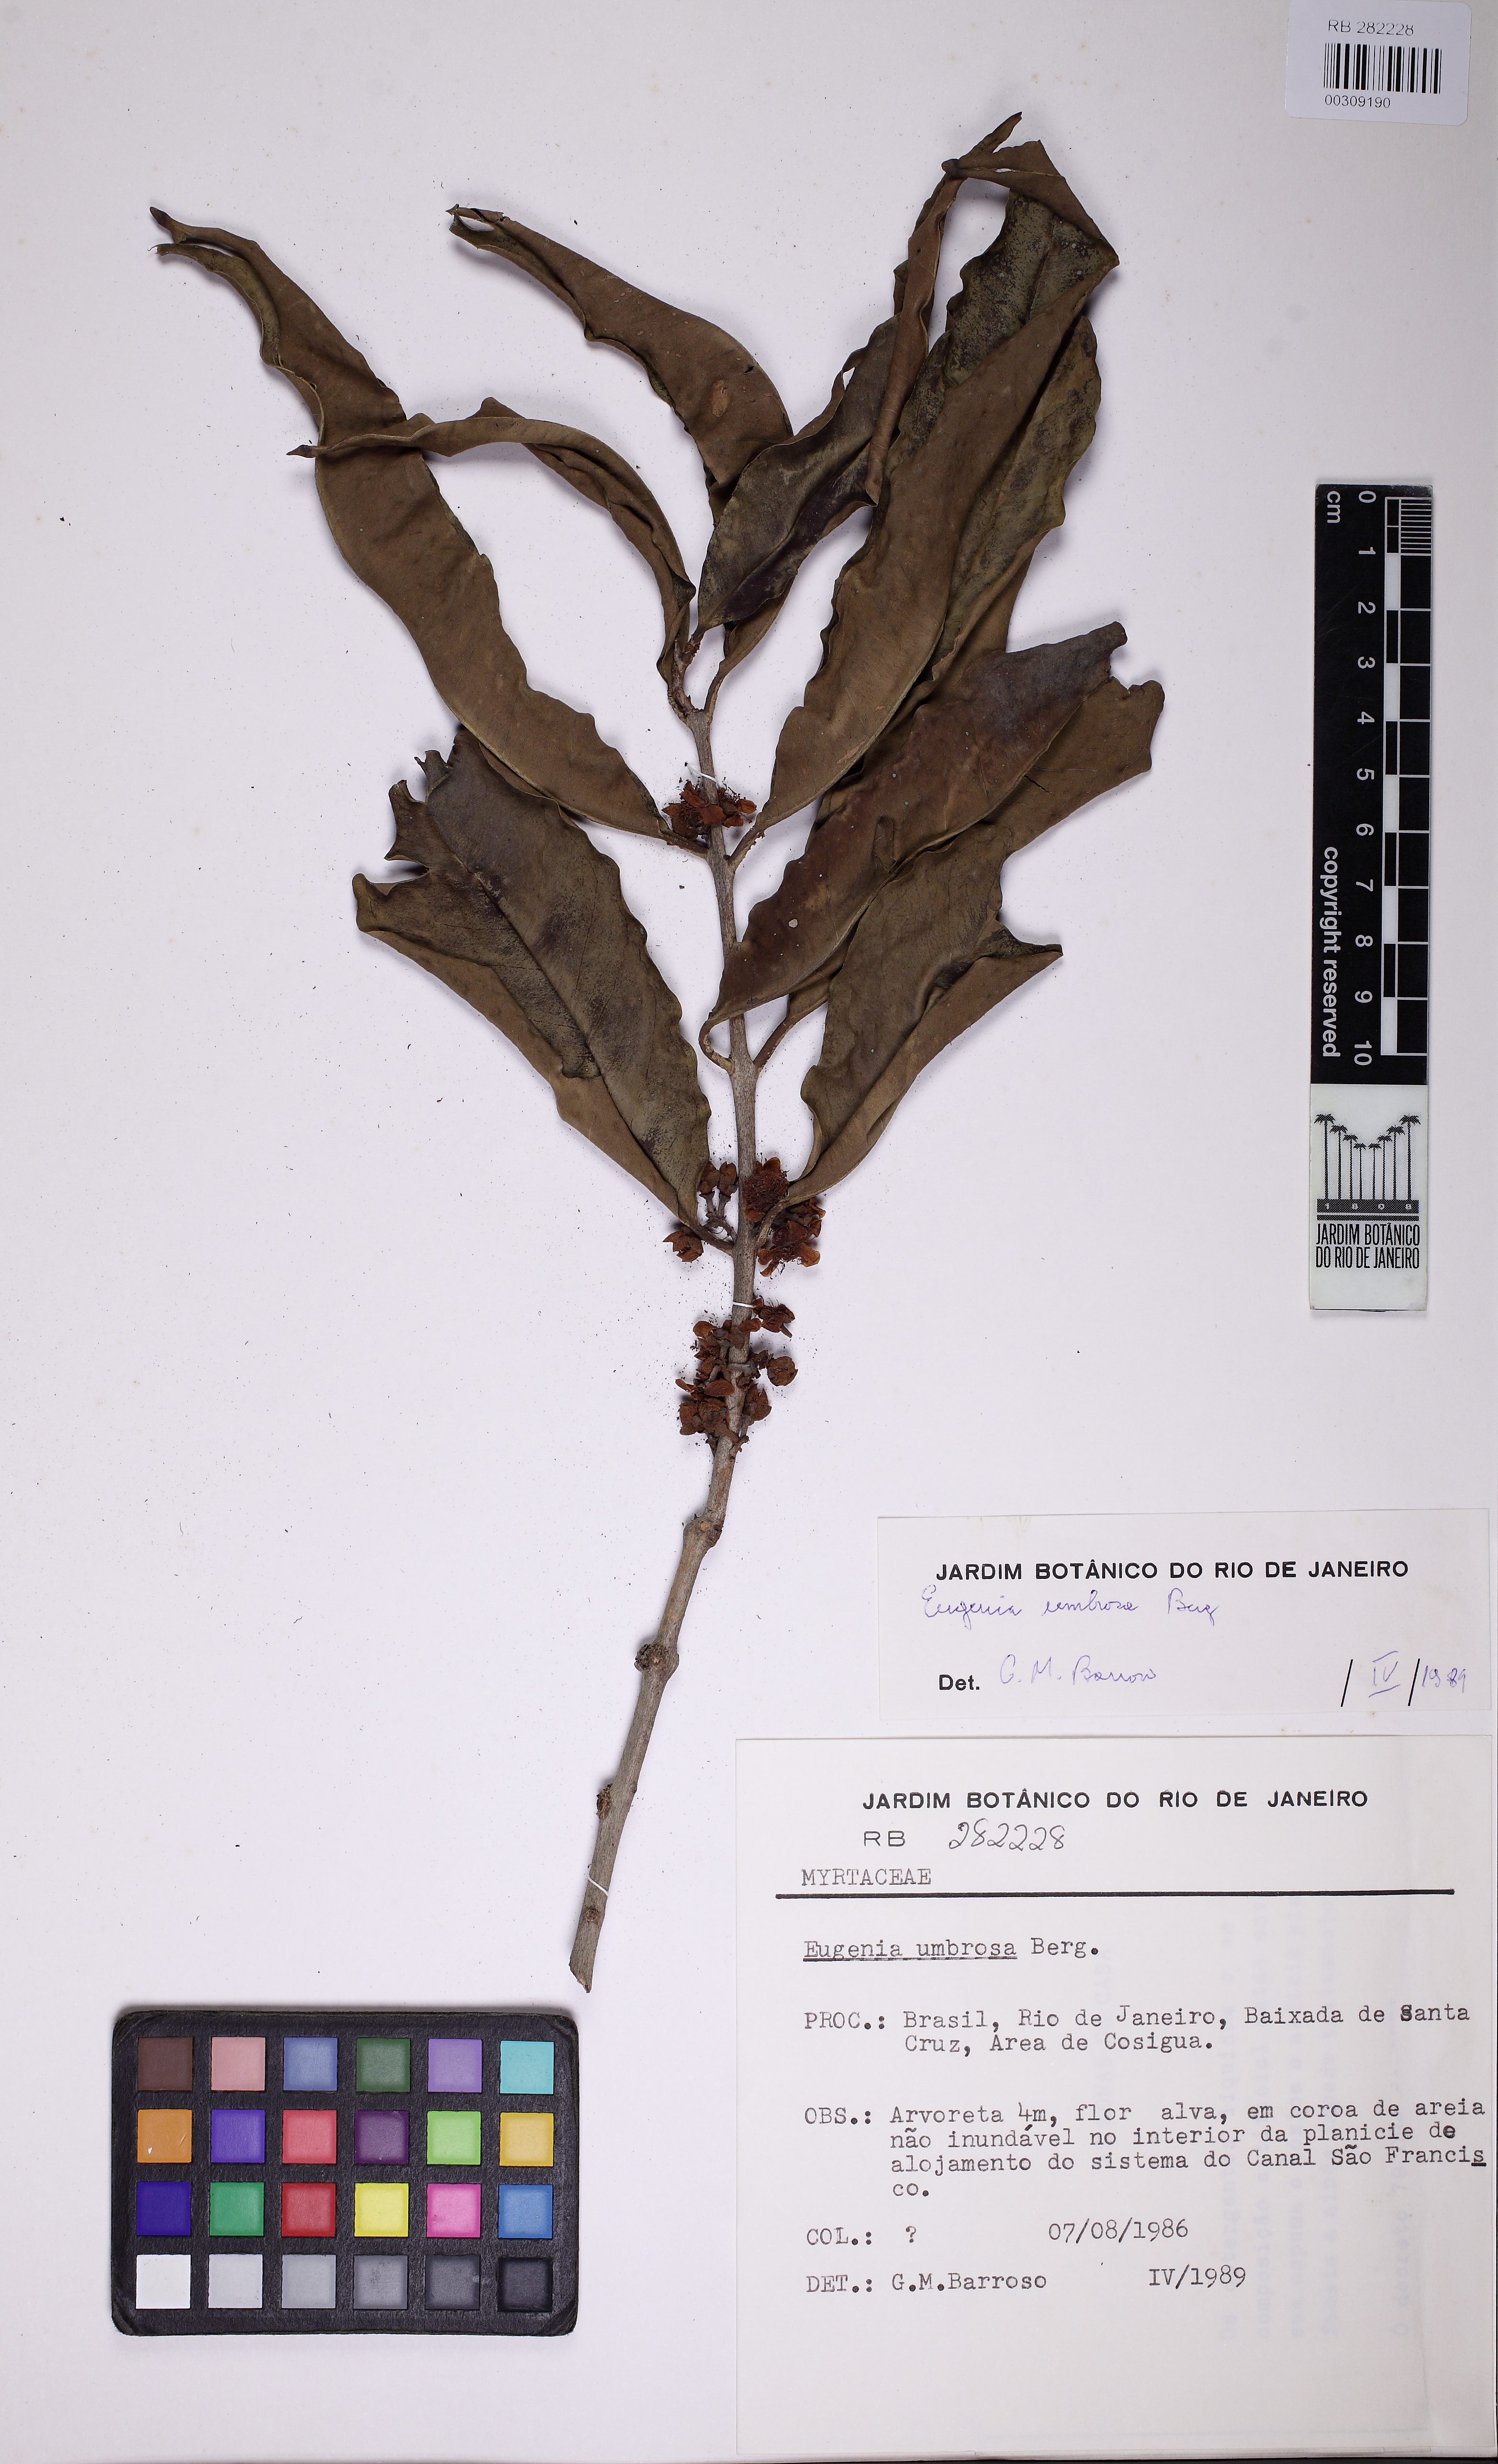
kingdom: Plantae
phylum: Tracheophyta
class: Magnoliopsida
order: Myrtales
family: Myrtaceae
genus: Eugenia
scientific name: Eugenia oblongata
